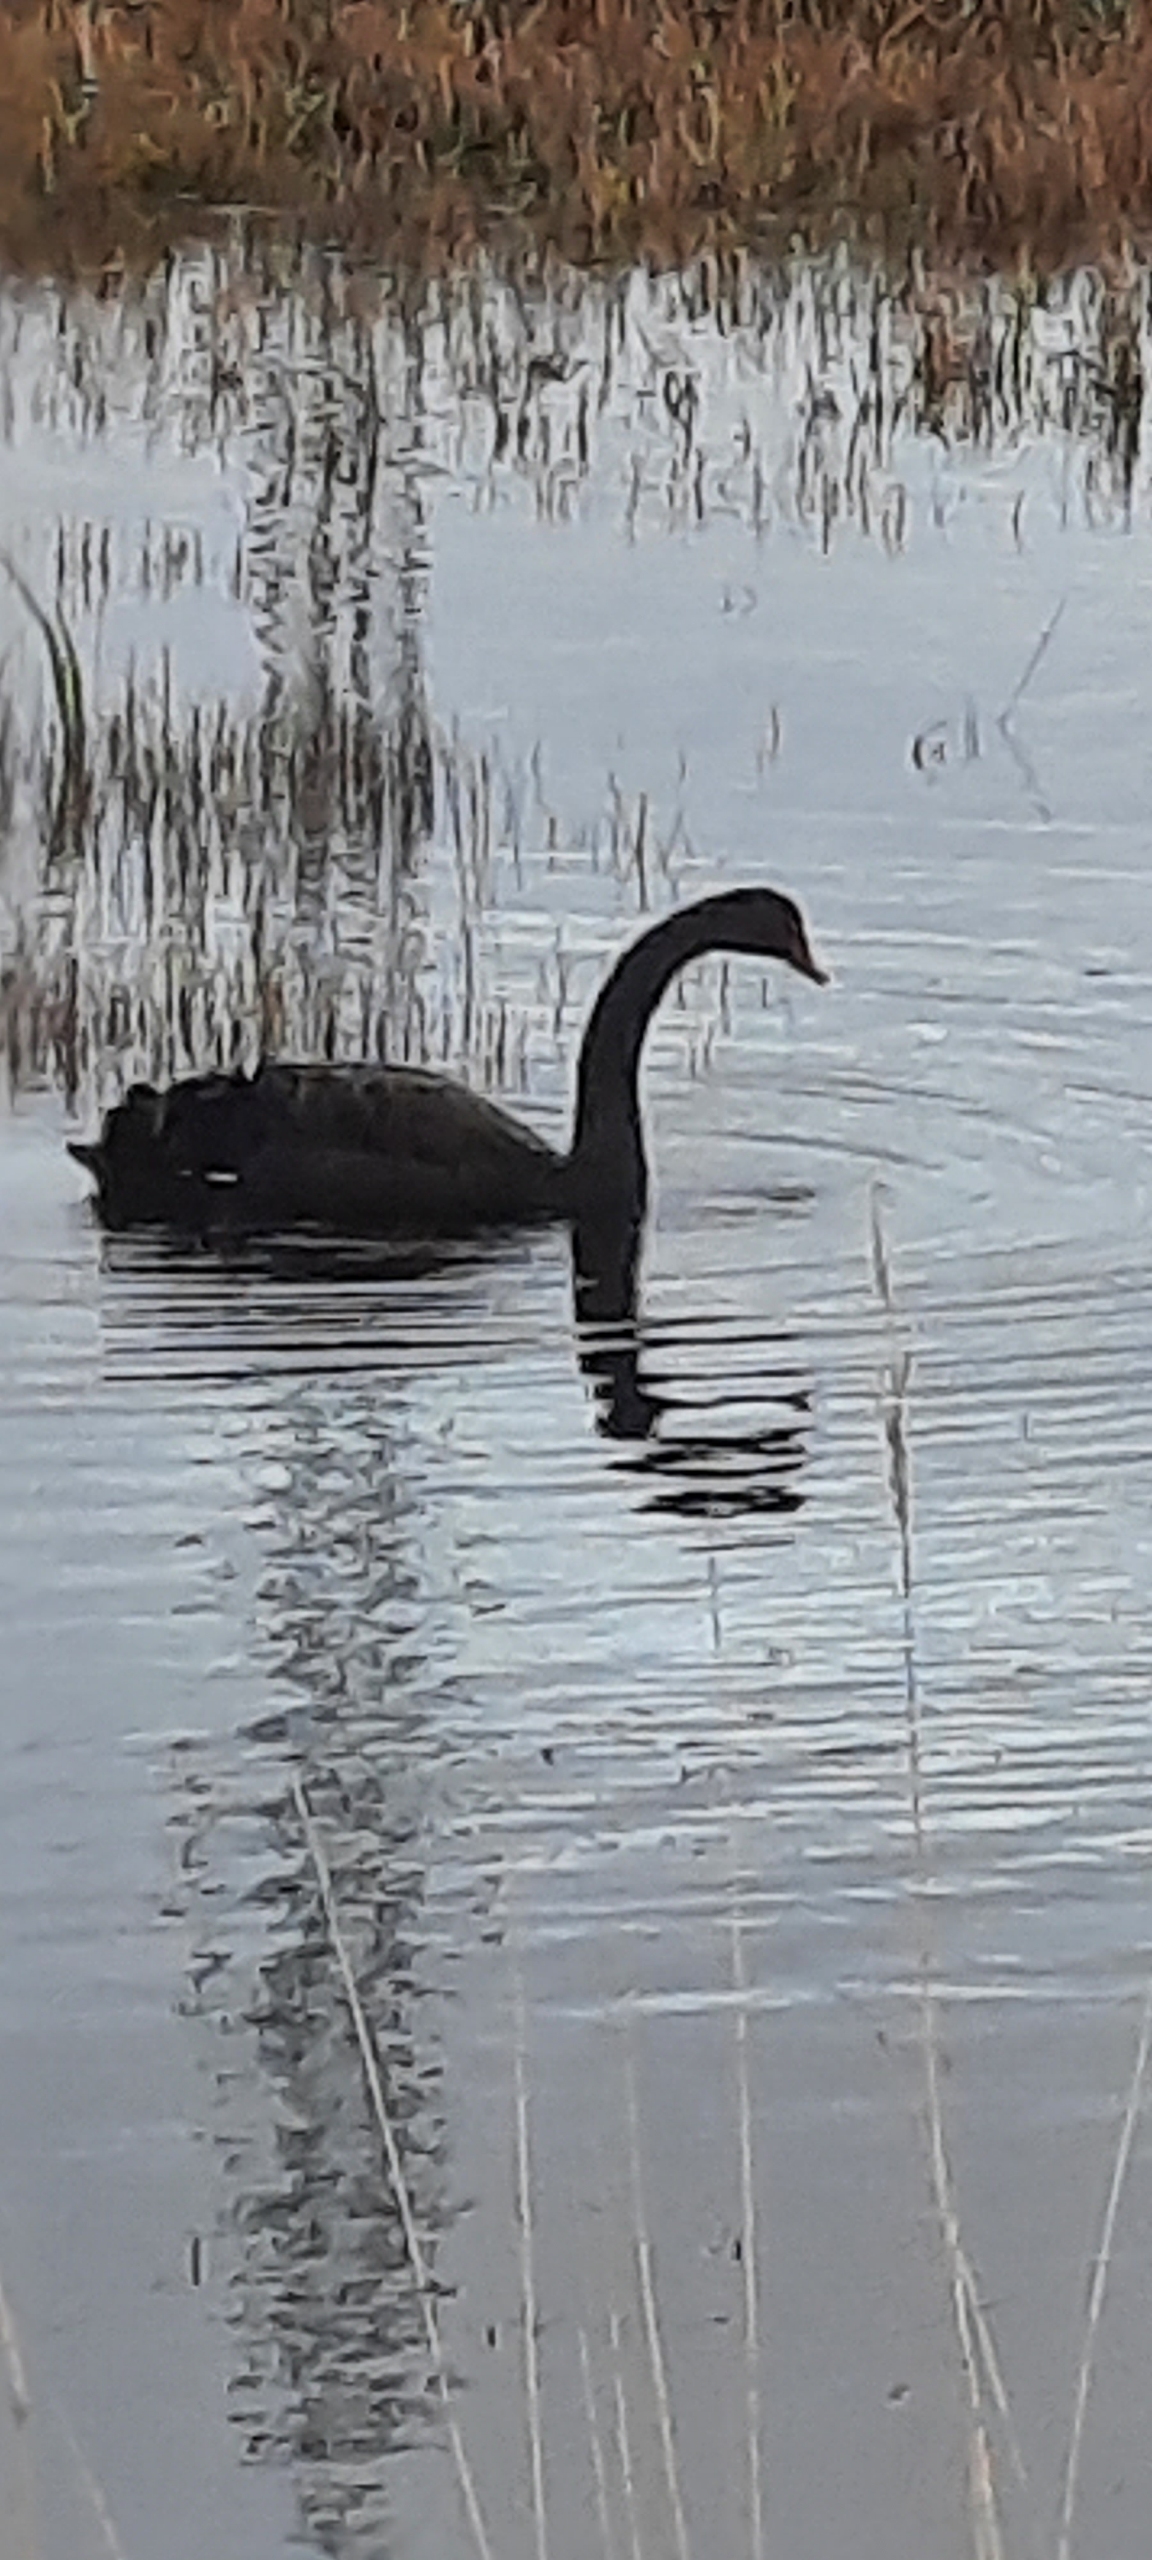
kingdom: Animalia
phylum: Chordata
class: Aves
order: Anseriformes
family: Anatidae
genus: Cygnus
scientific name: Cygnus atratus
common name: Sortsvane
